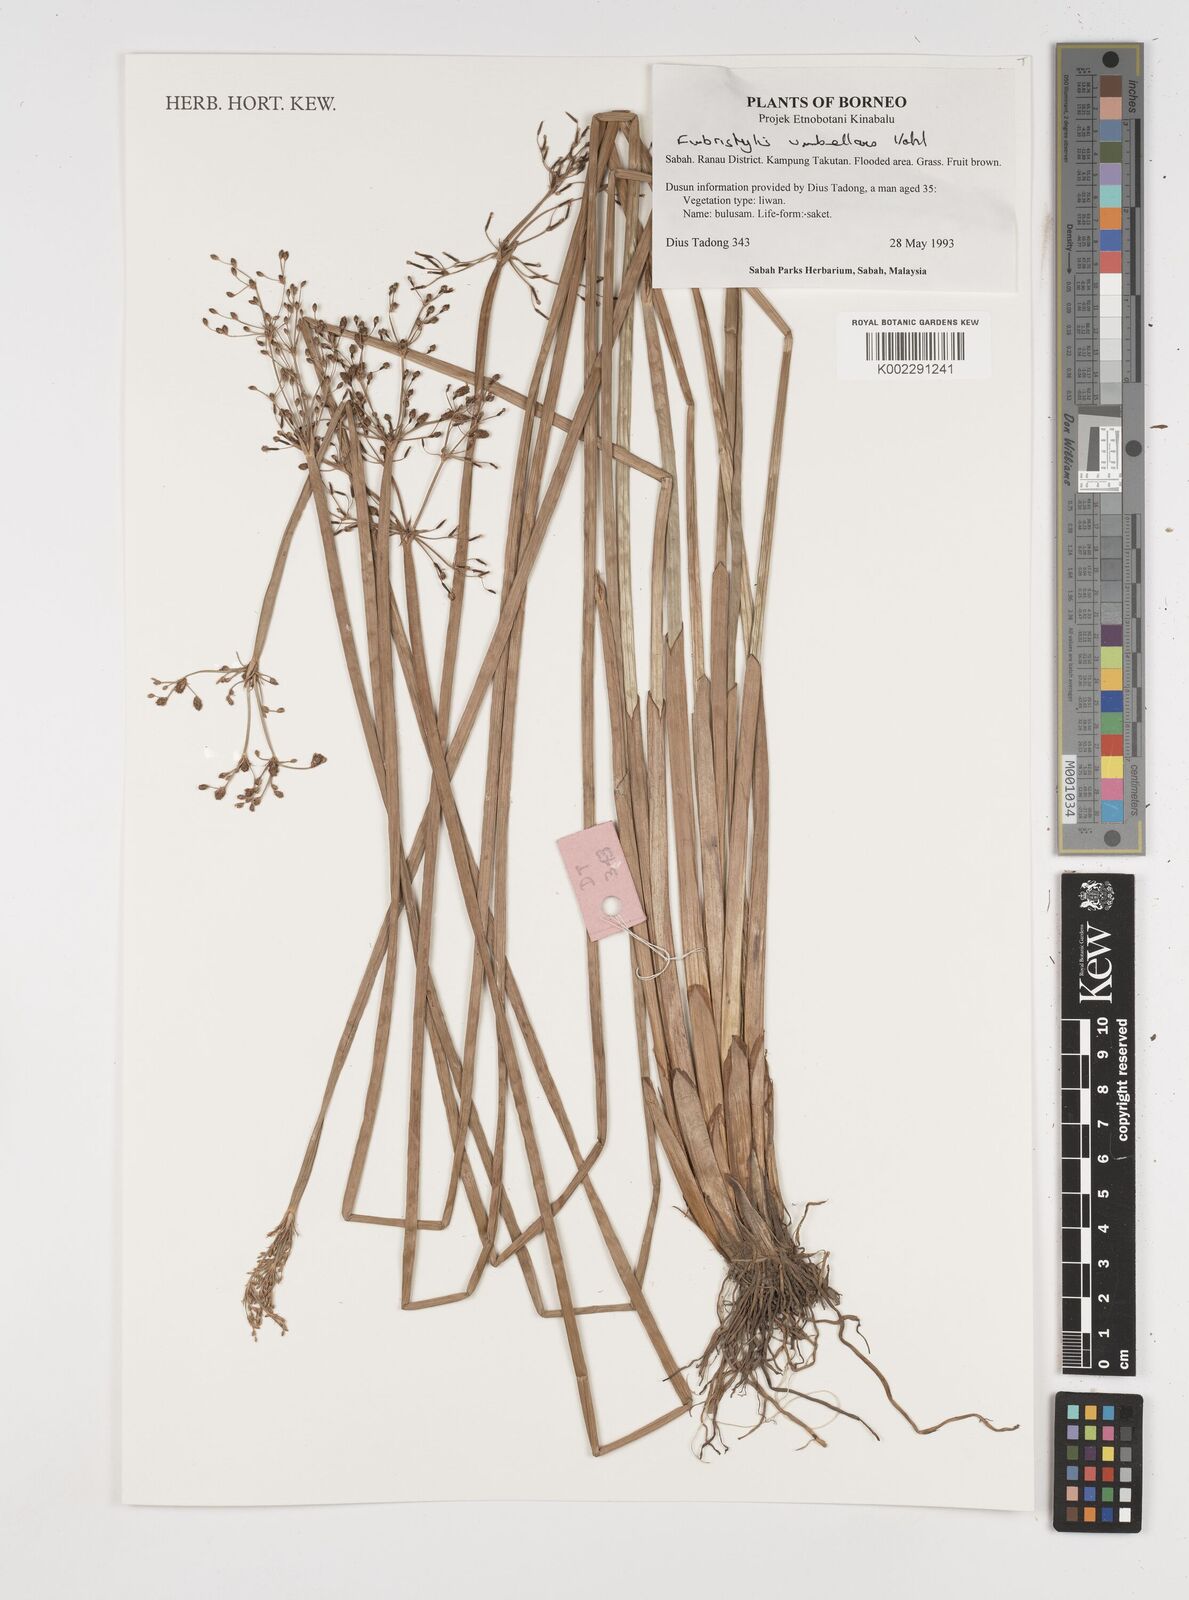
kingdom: Plantae
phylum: Tracheophyta
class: Liliopsida
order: Poales
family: Cyperaceae
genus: Fimbristylis
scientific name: Fimbristylis umbellaris
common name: Globular fimbristylis
